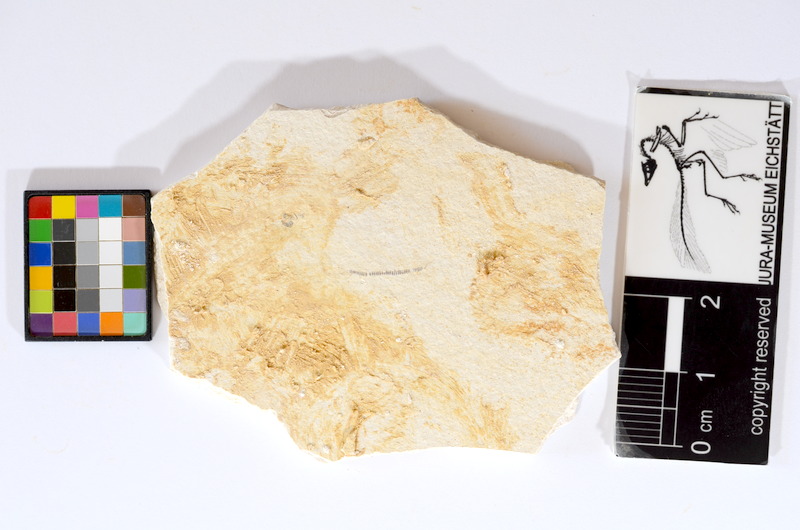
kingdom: Animalia
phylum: Chordata
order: Salmoniformes
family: Orthogonikleithridae
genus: Orthogonikleithrus
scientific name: Orthogonikleithrus hoelli
